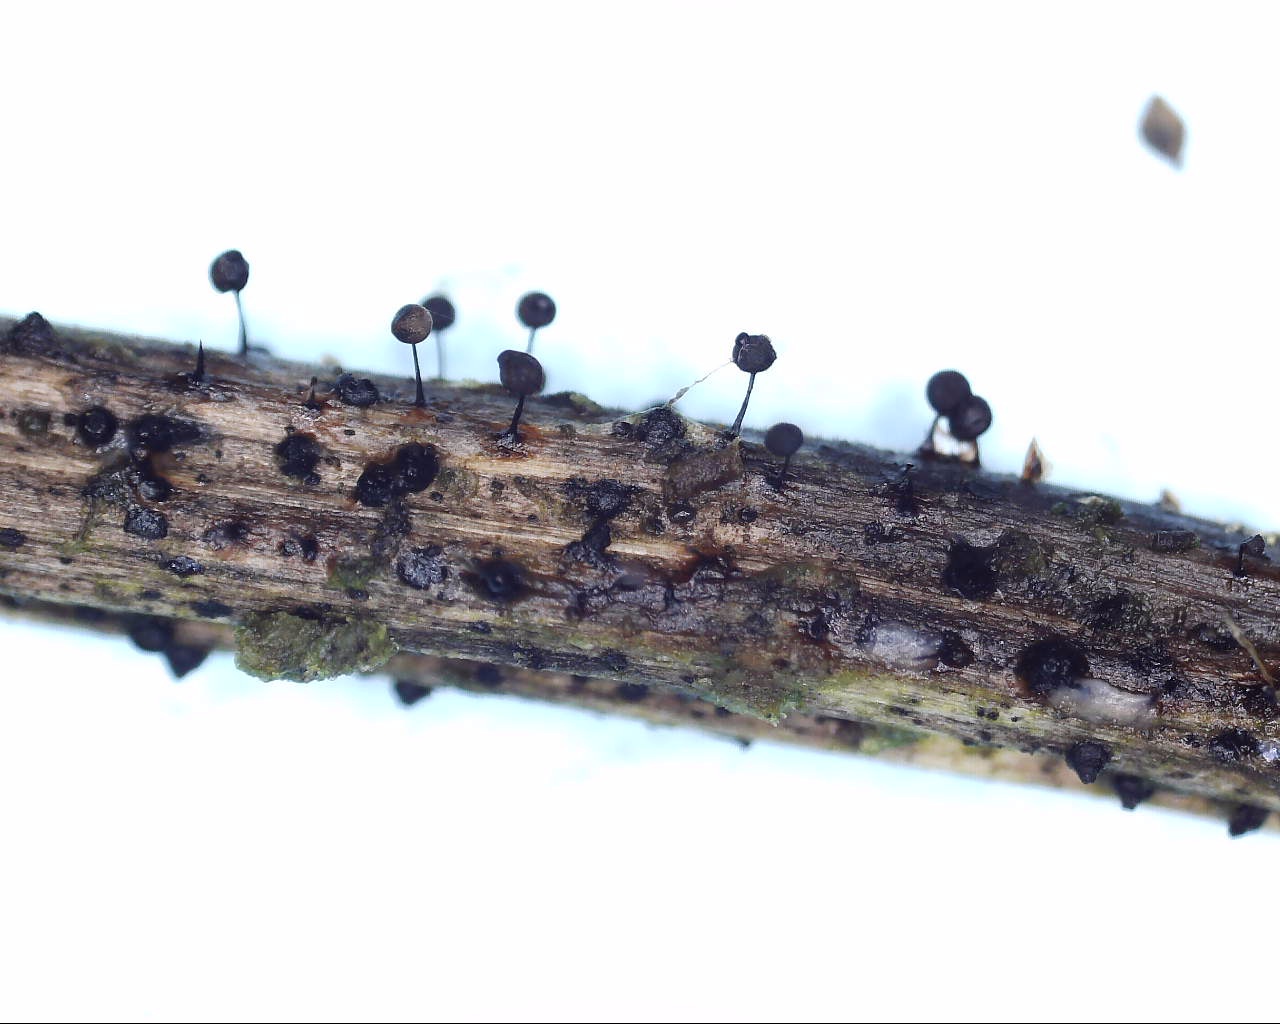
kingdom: Protozoa
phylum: Mycetozoa
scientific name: Mycetozoa
